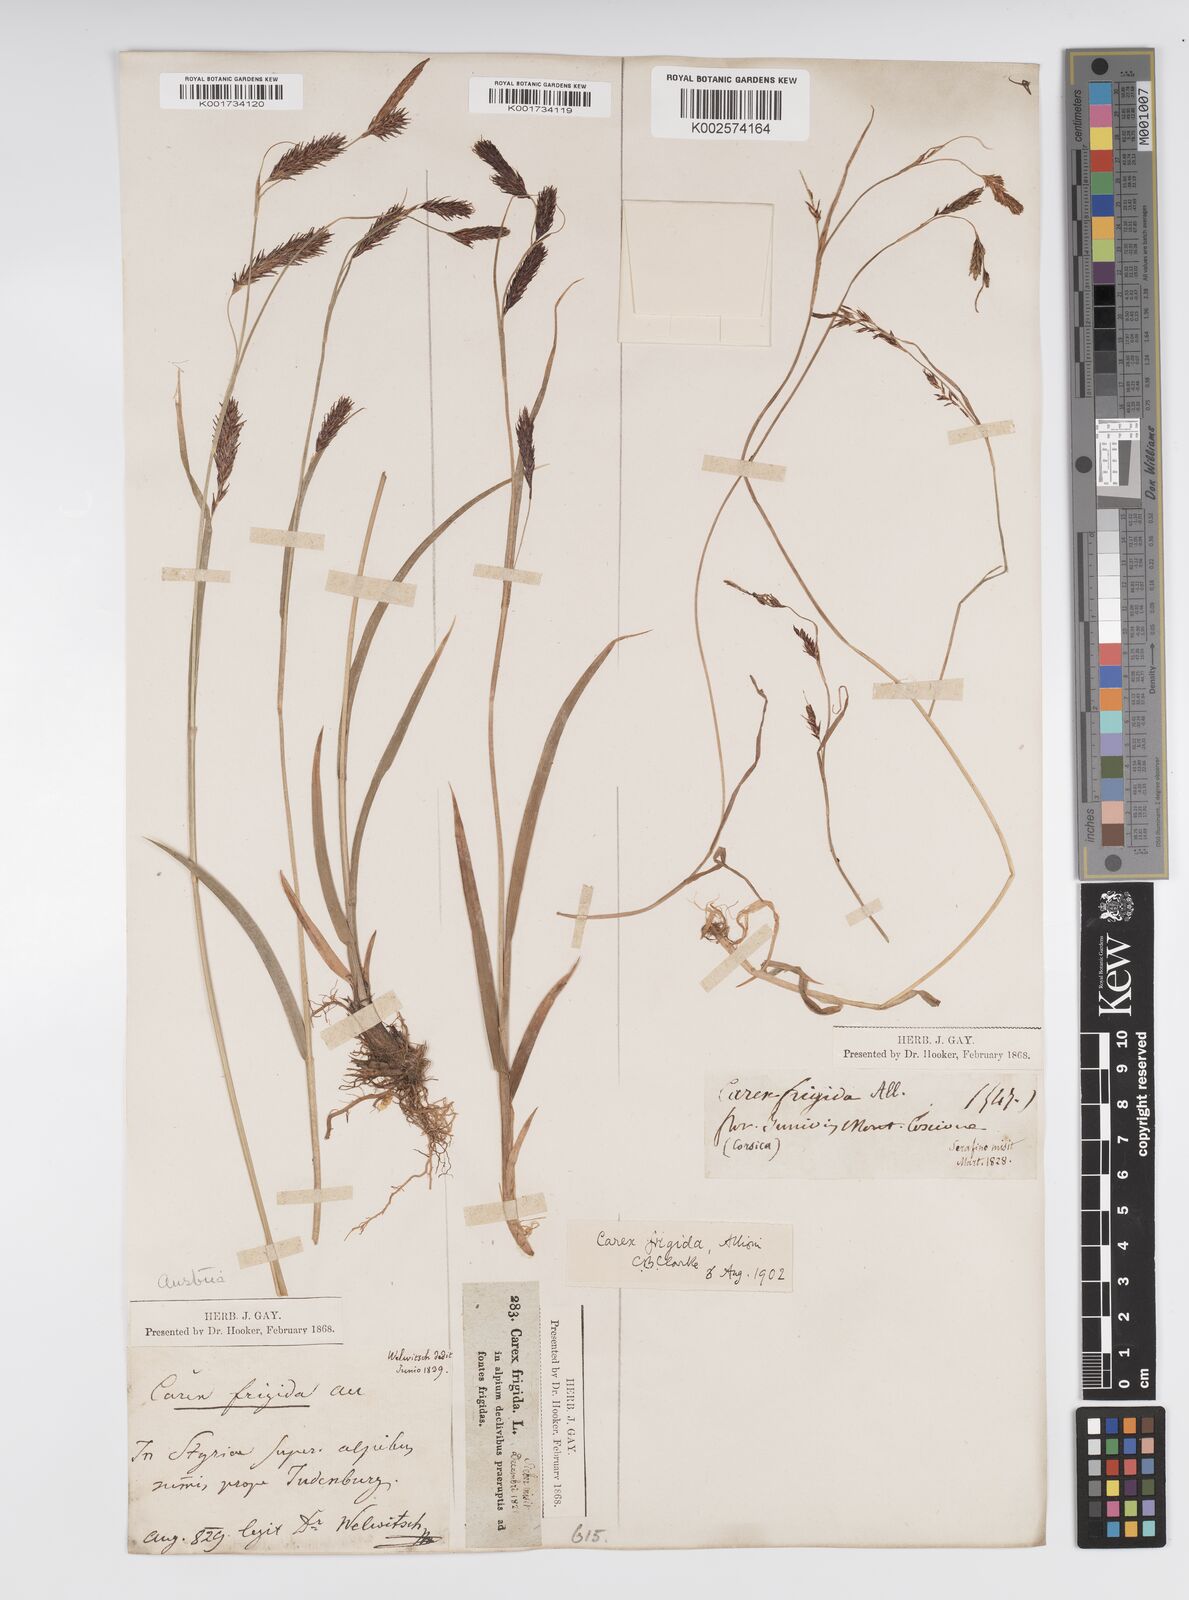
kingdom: Plantae
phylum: Tracheophyta
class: Liliopsida
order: Poales
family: Cyperaceae
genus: Carex
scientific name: Carex frigida
